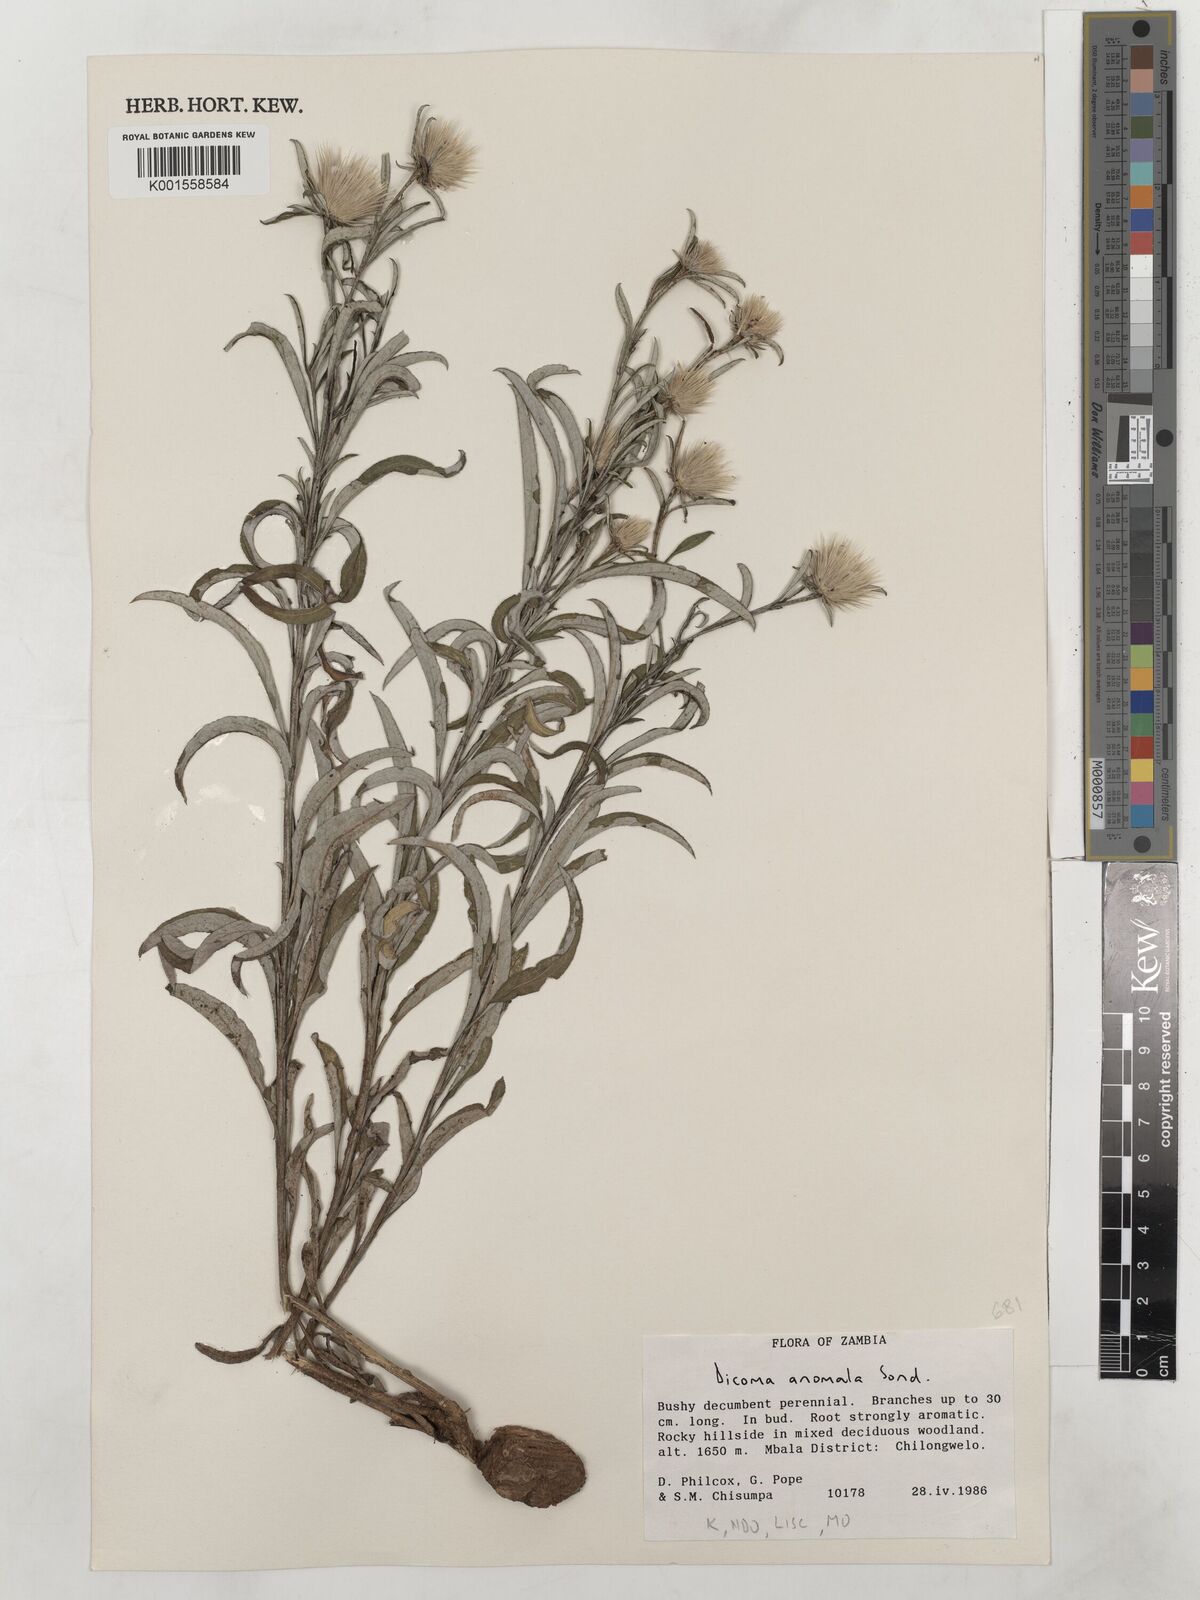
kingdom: Plantae
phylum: Tracheophyta
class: Magnoliopsida
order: Asterales
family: Asteraceae
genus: Dicoma
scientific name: Dicoma anomala
